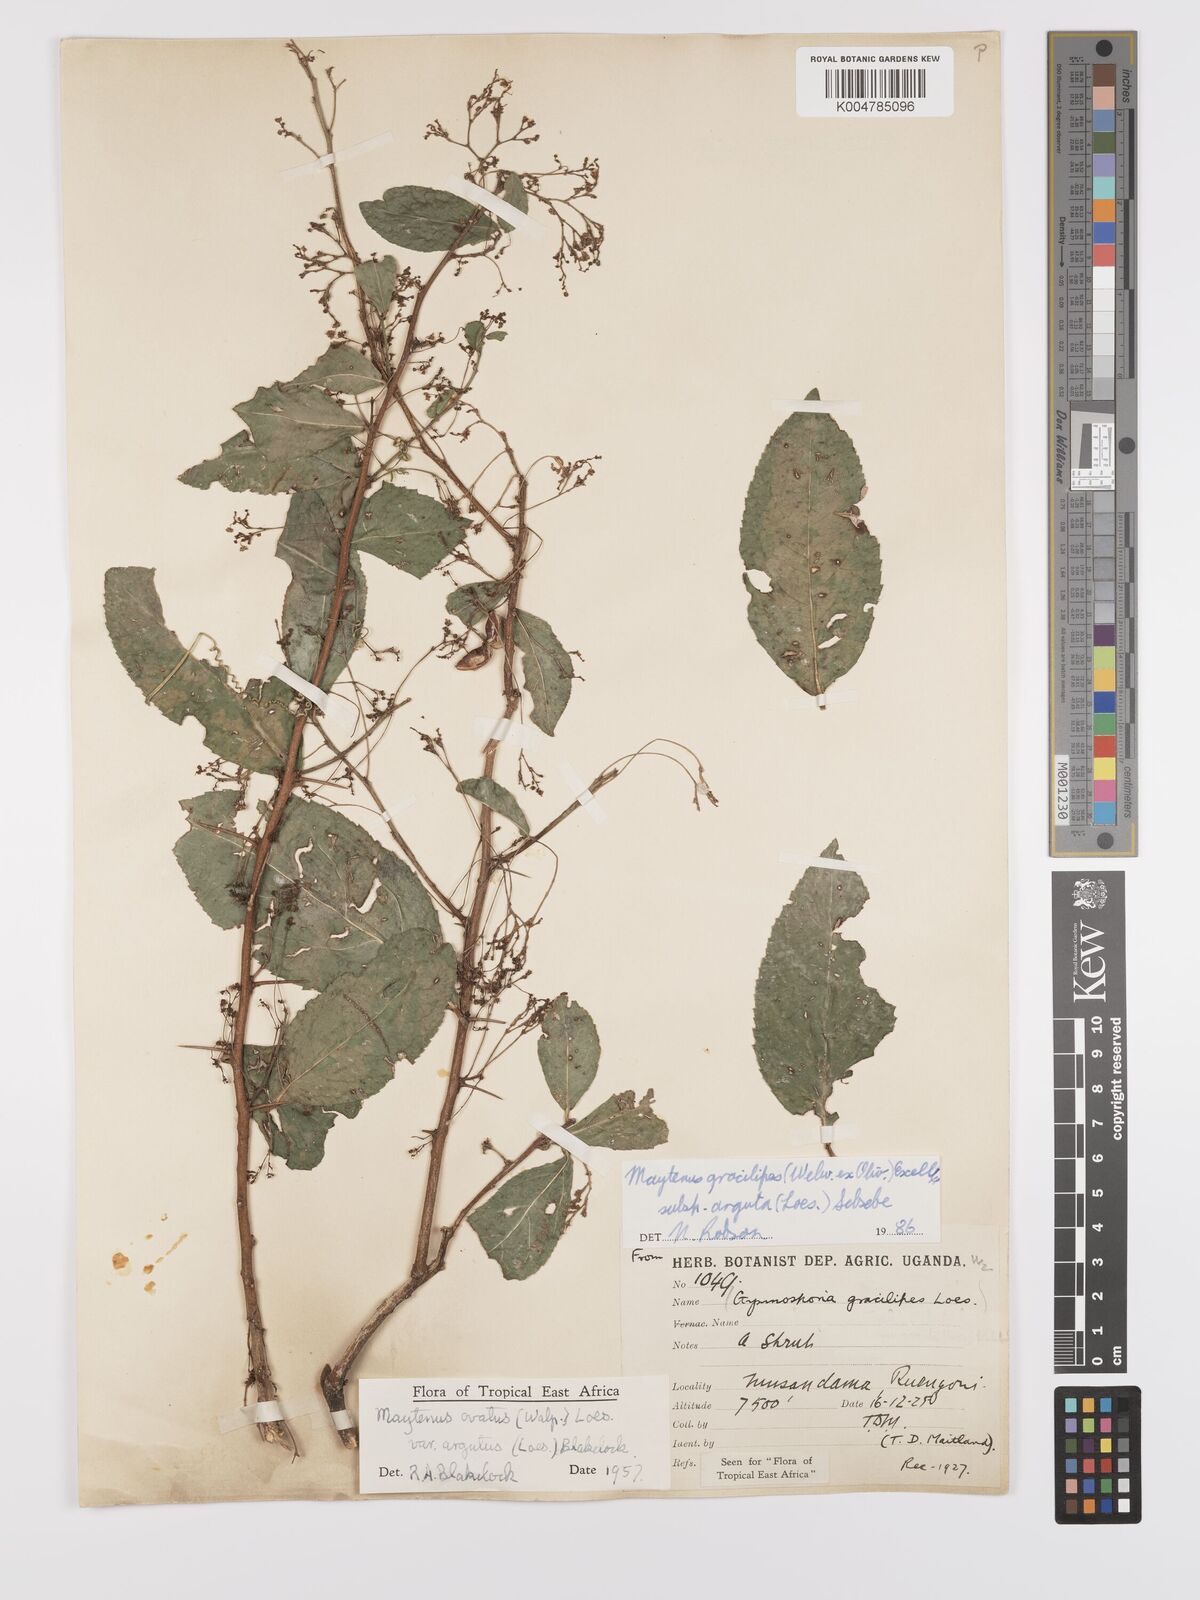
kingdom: Plantae
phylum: Tracheophyta
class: Magnoliopsida
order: Celastrales
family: Celastraceae
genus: Gymnosporia
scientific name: Gymnosporia gracilipes
